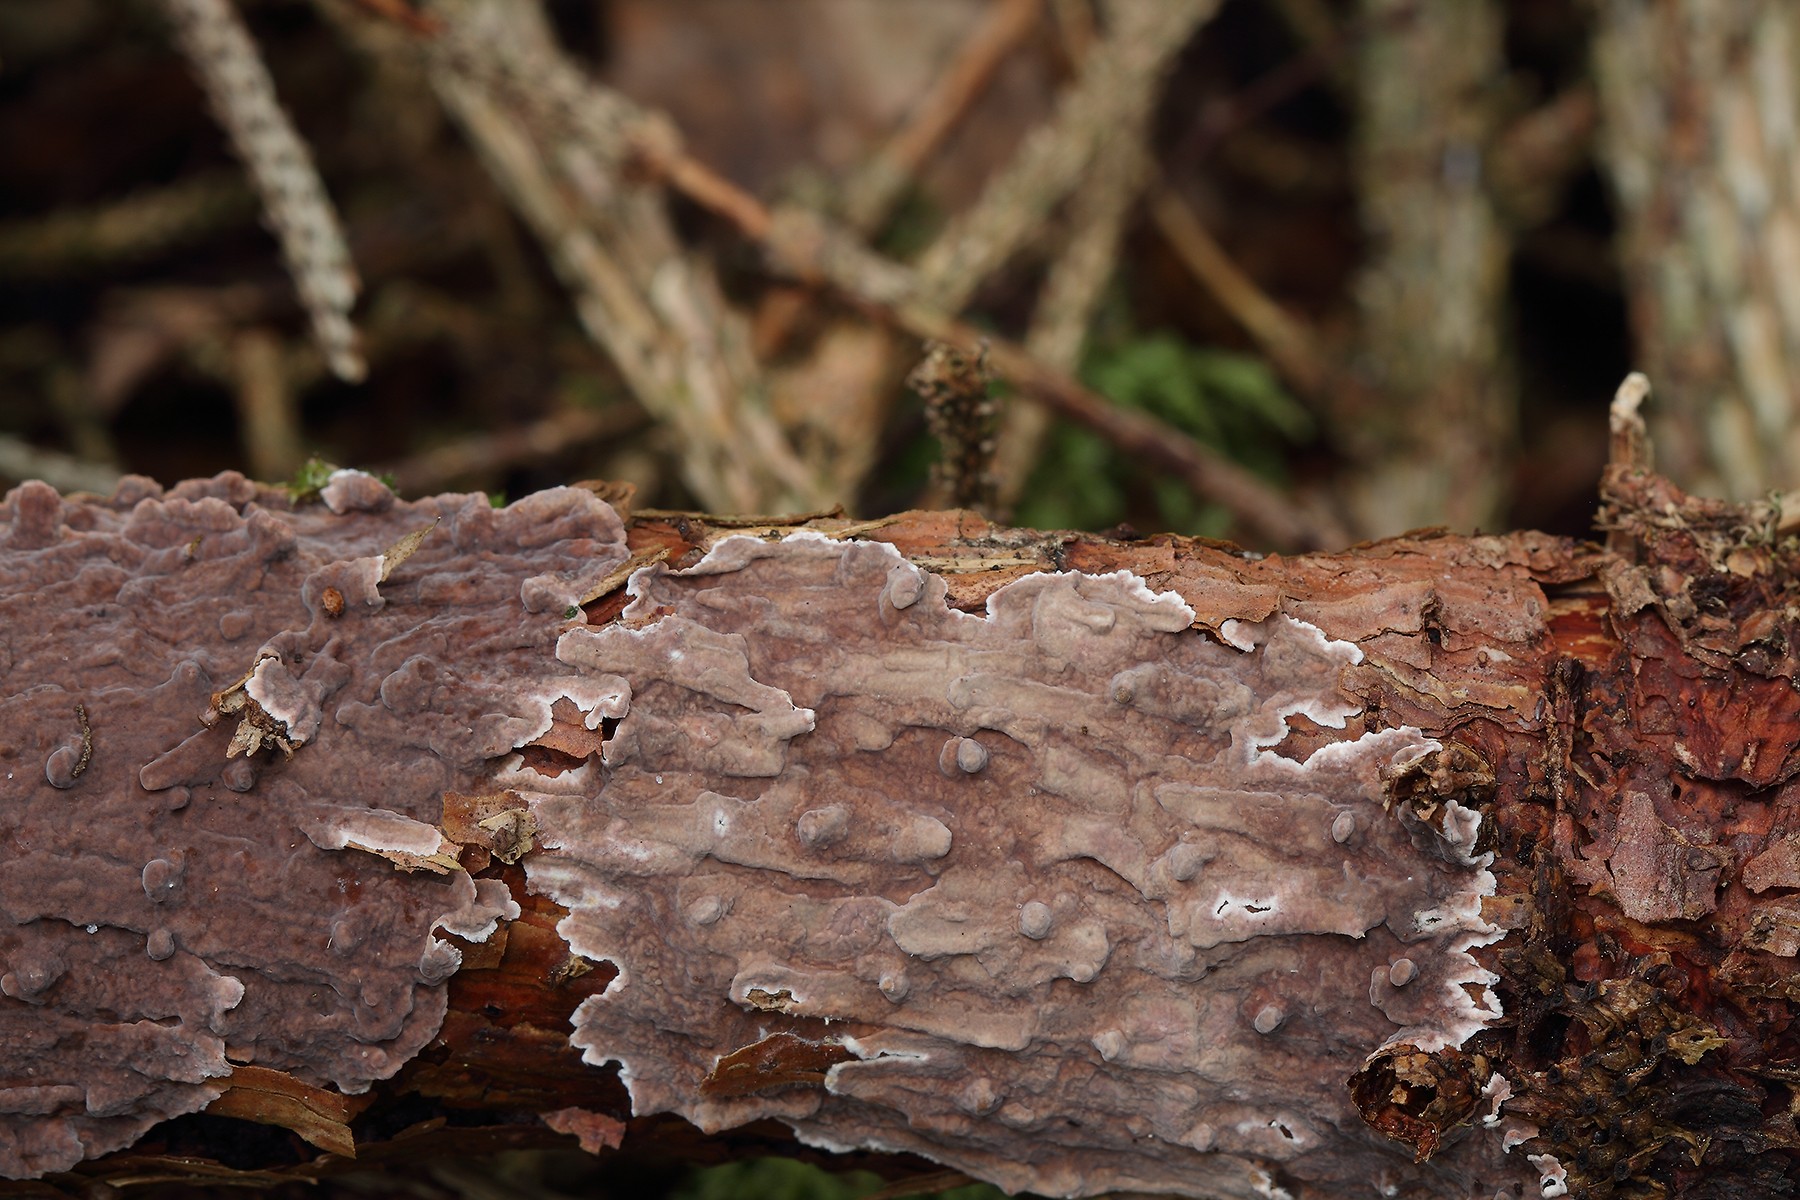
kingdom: Fungi
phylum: Basidiomycota
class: Agaricomycetes
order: Russulales
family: Echinodontiaceae
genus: Amylostereum
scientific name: Amylostereum chailletii
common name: gran-lædersvamp
